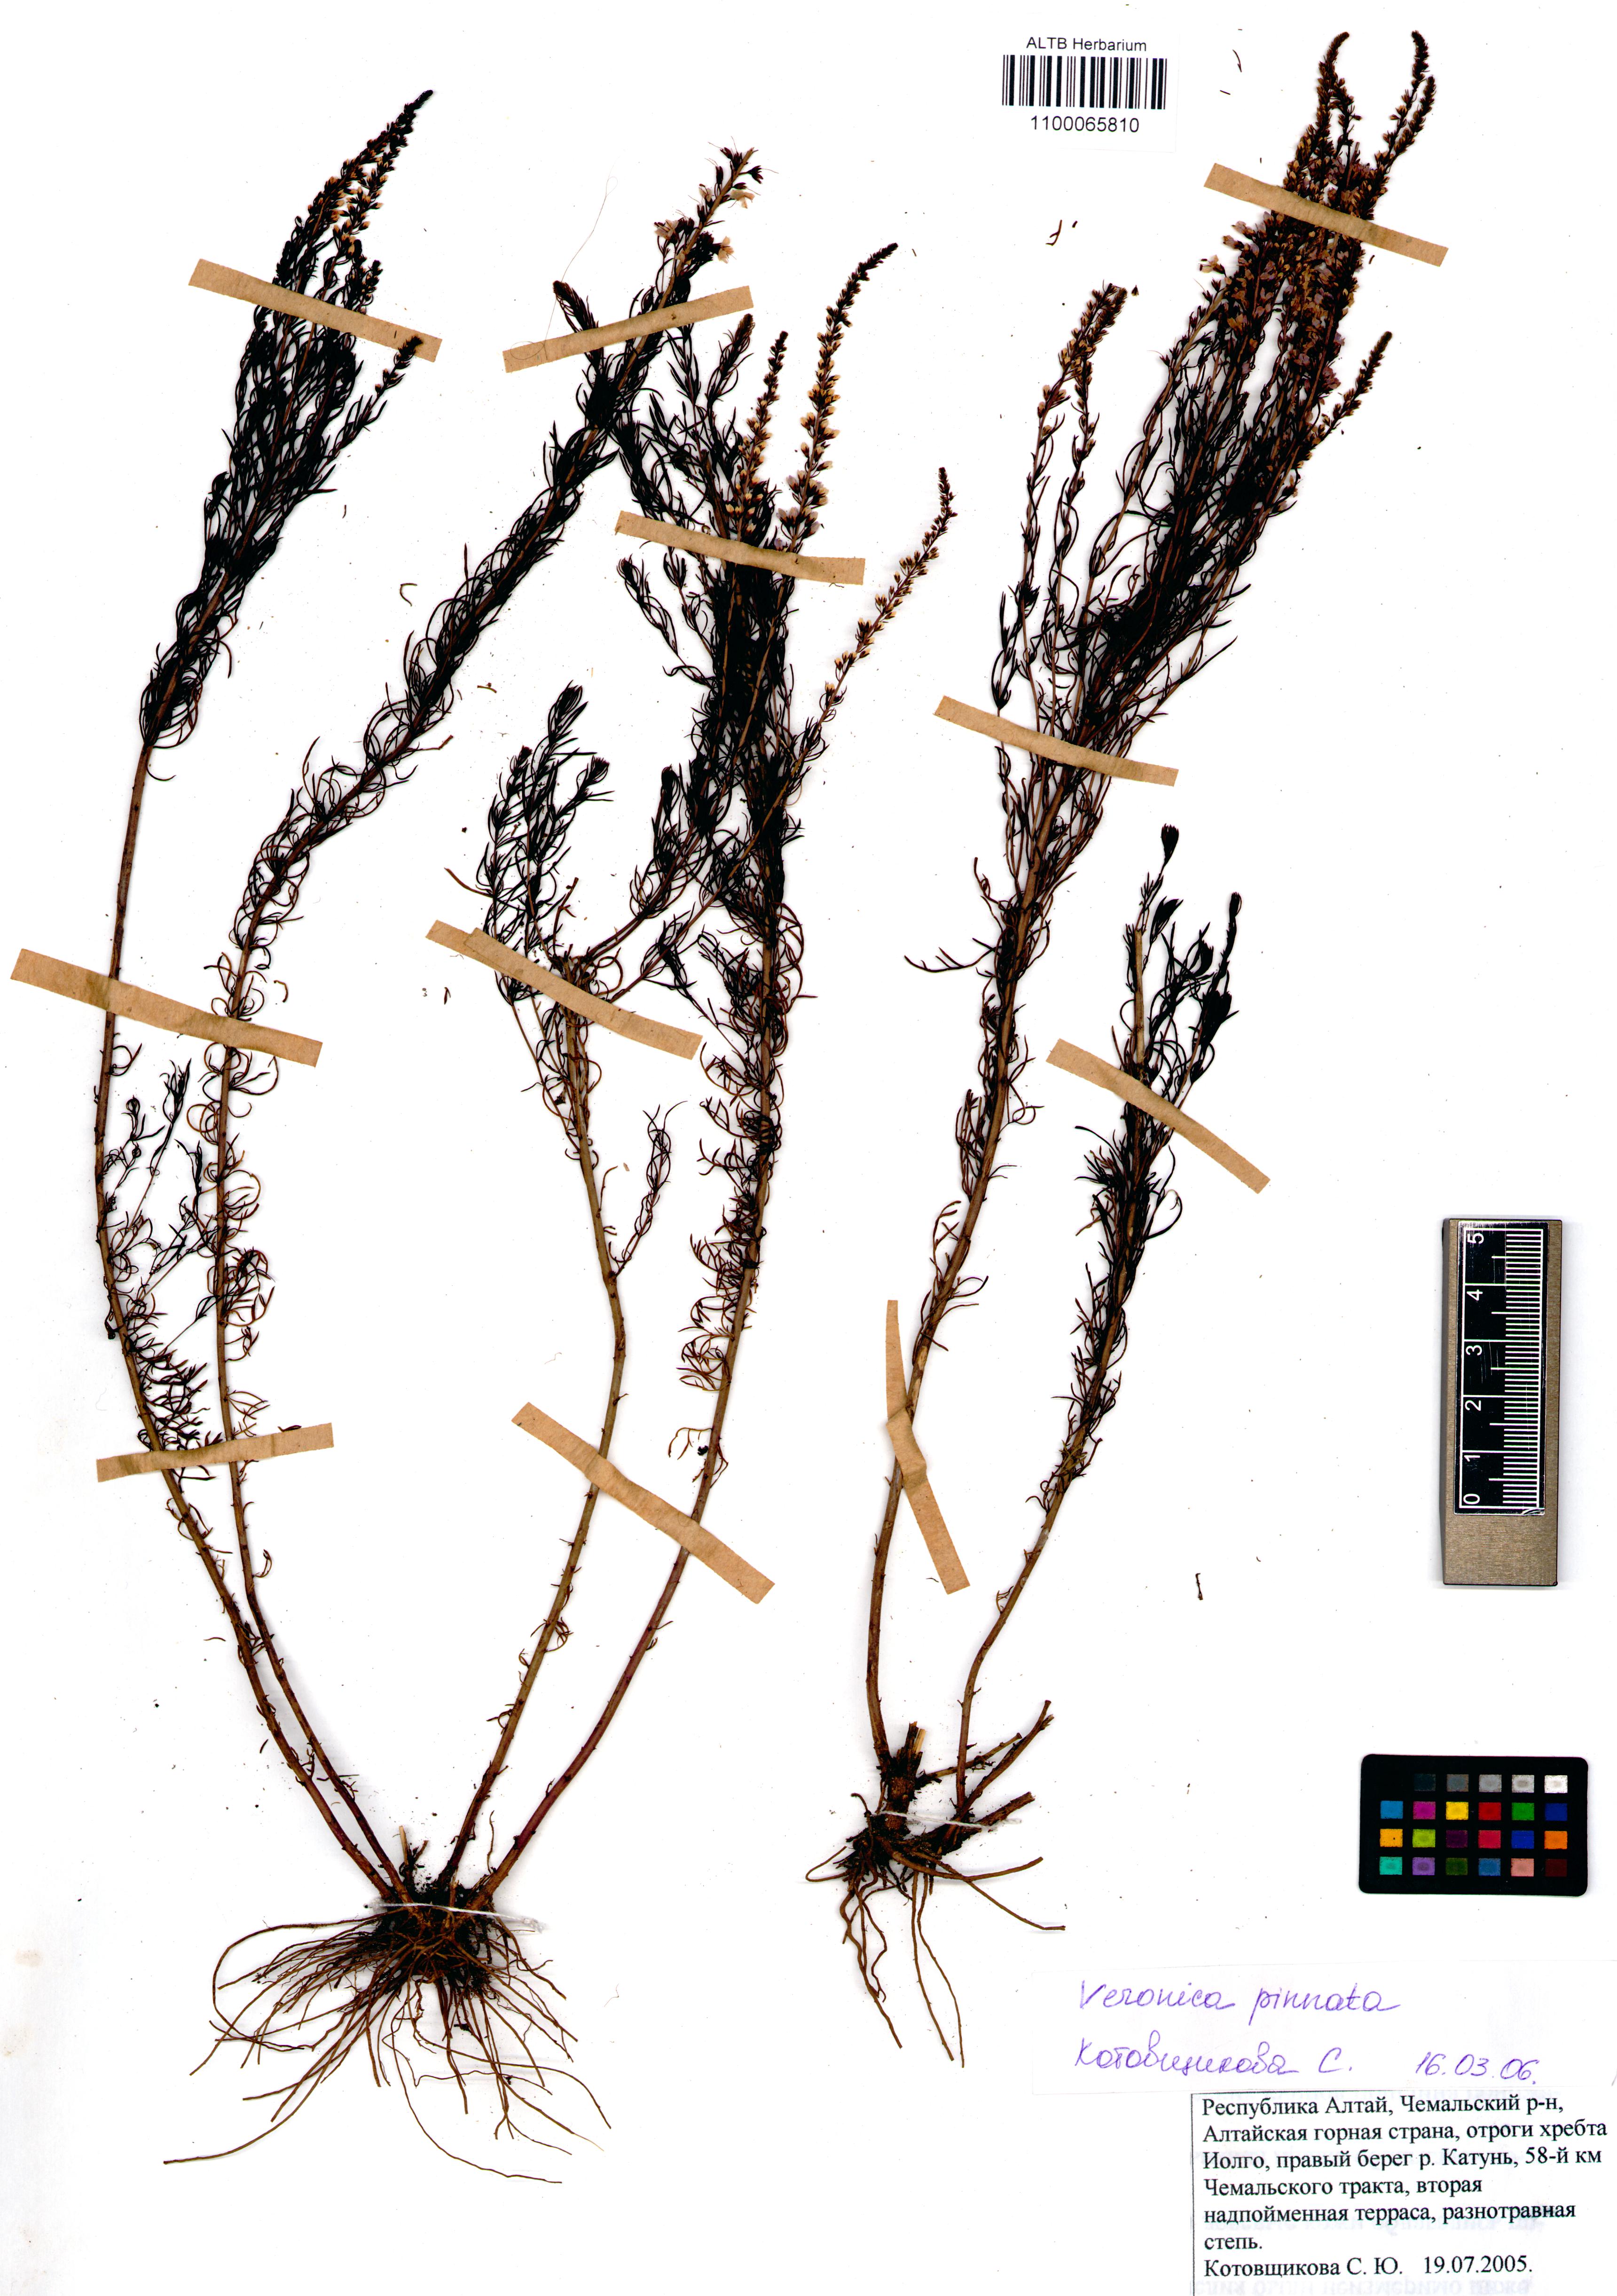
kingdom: Plantae
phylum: Tracheophyta
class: Magnoliopsida
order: Lamiales
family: Plantaginaceae
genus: Veronica
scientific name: Veronica pinnata
